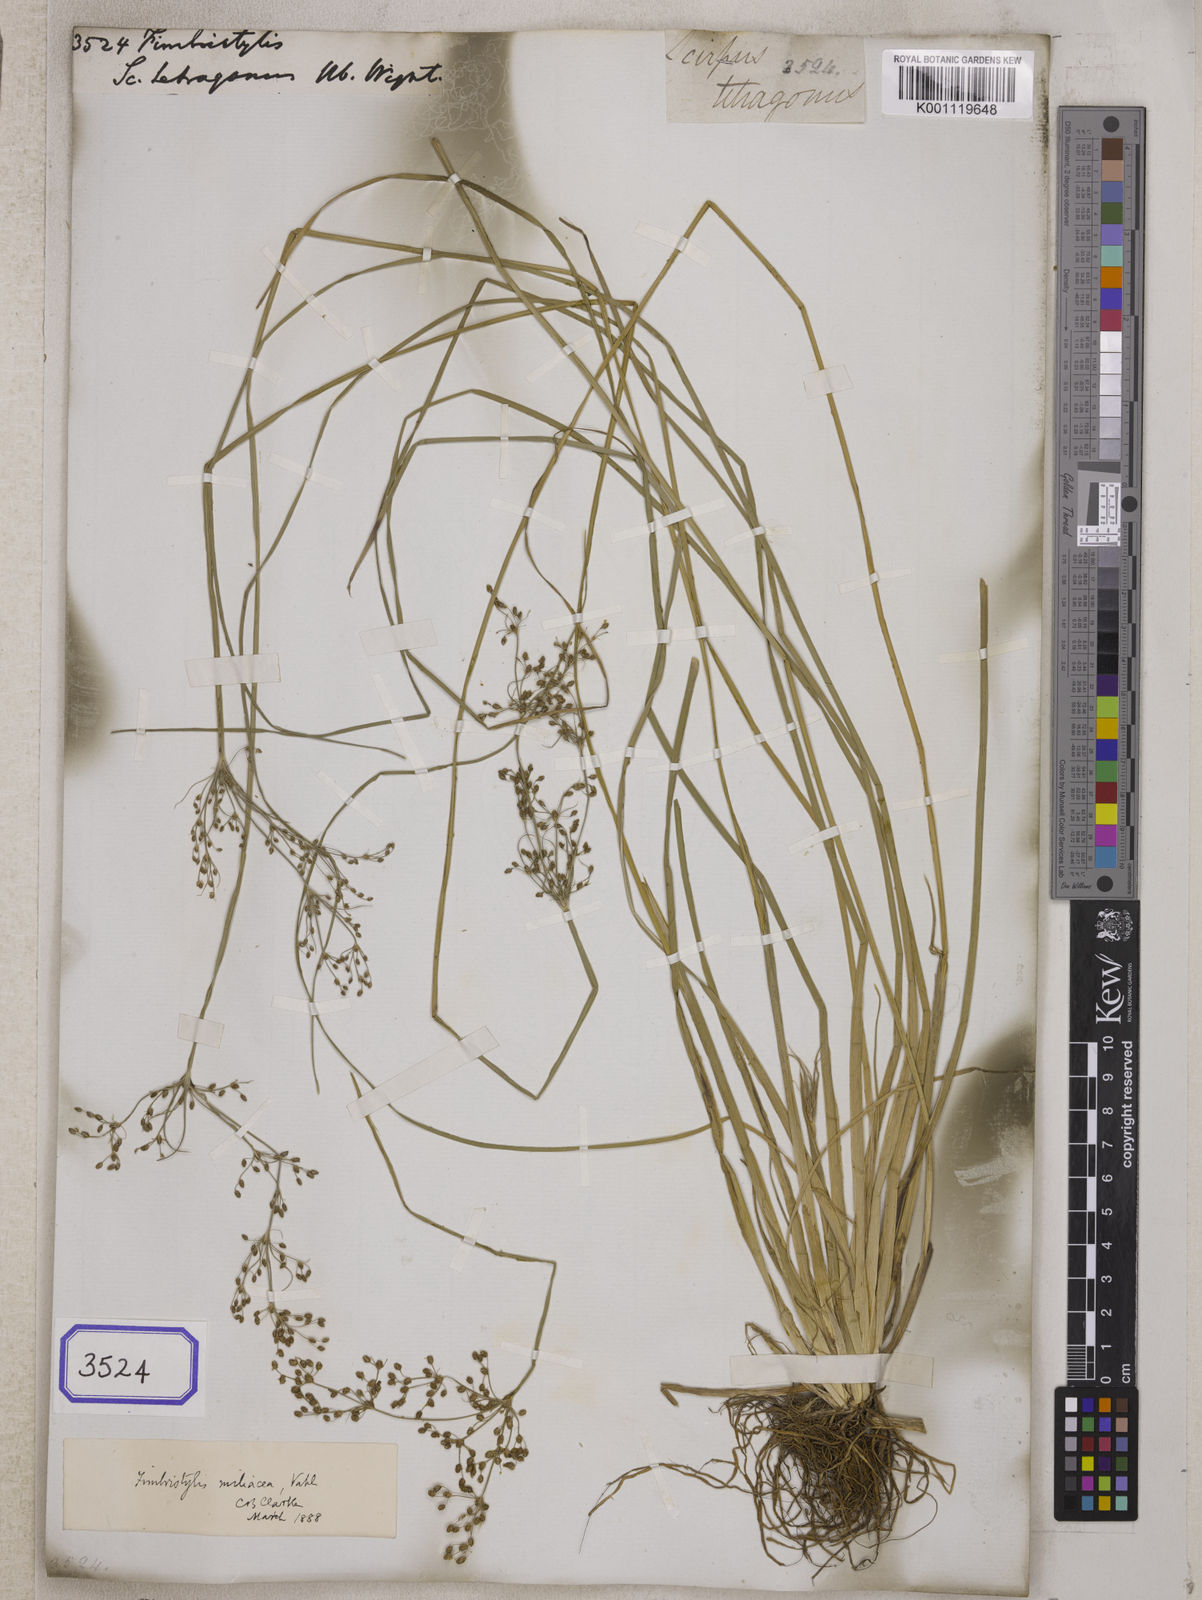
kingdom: Plantae
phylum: Tracheophyta
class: Liliopsida
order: Poales
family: Cyperaceae
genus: Fimbristylis
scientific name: Fimbristylis
